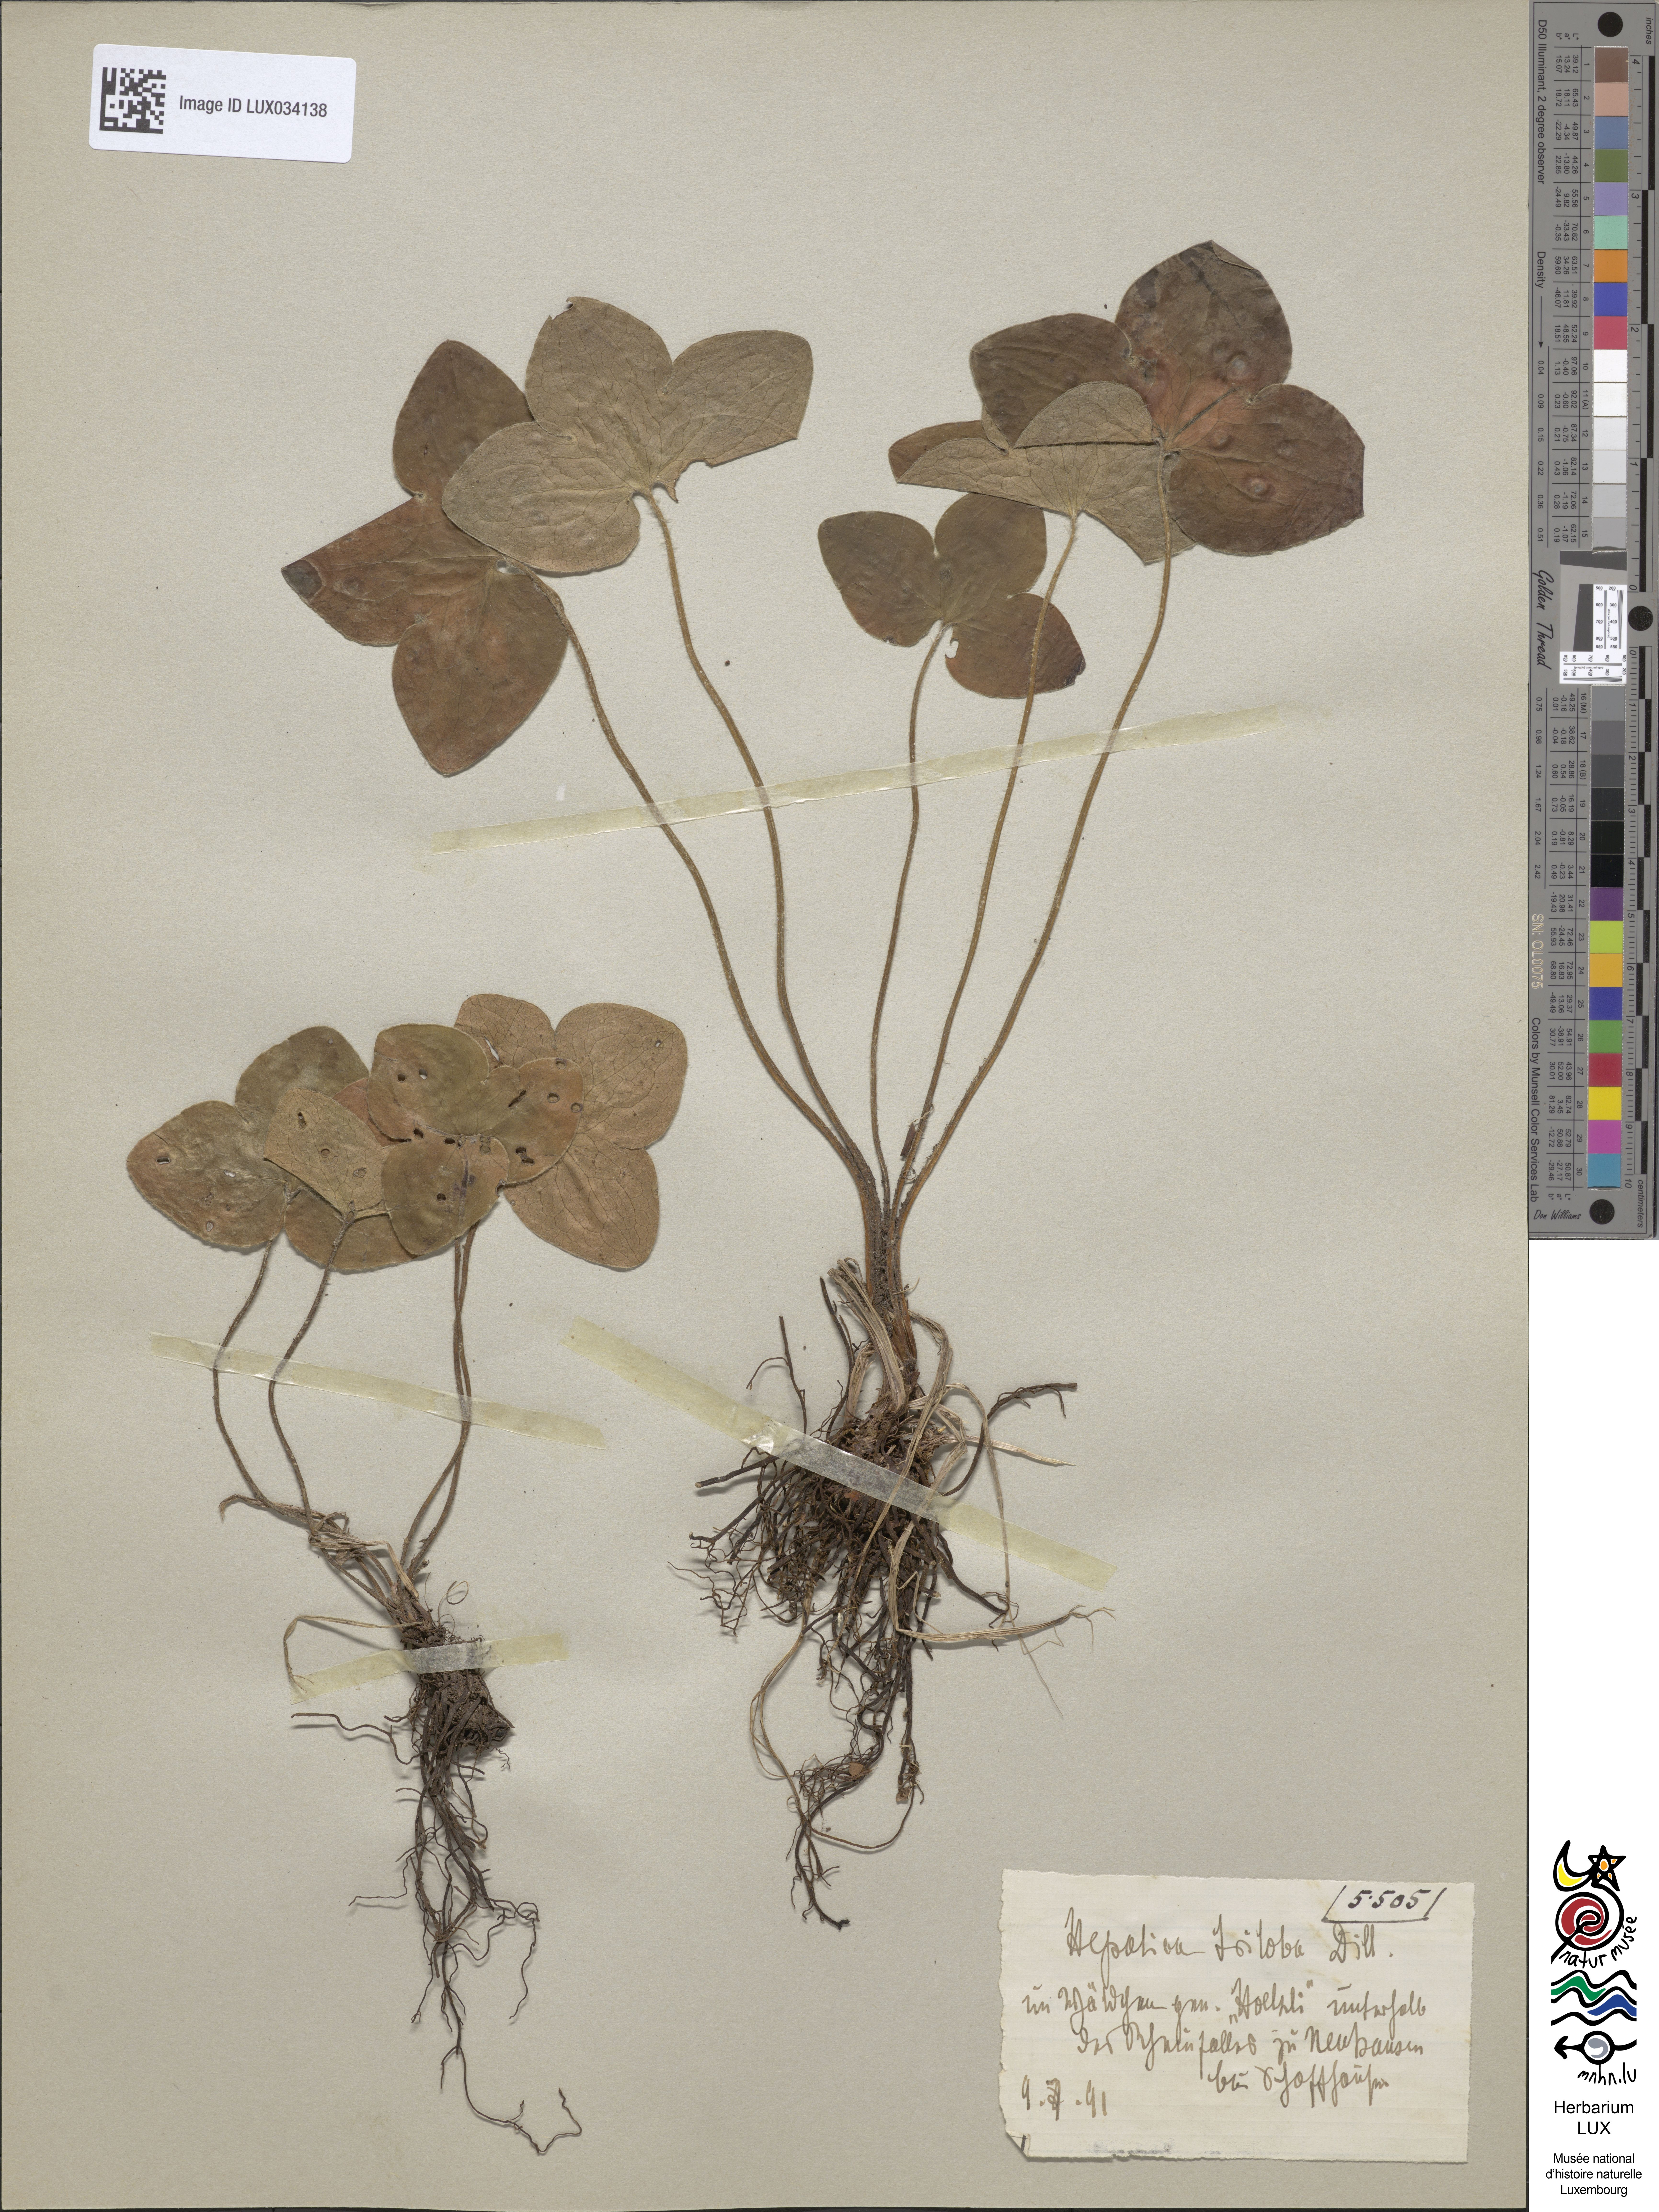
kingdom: Plantae
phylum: Tracheophyta
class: Magnoliopsida
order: Ranunculales
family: Ranunculaceae
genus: Hepatica
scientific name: Hepatica nobilis
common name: Liverleaf
